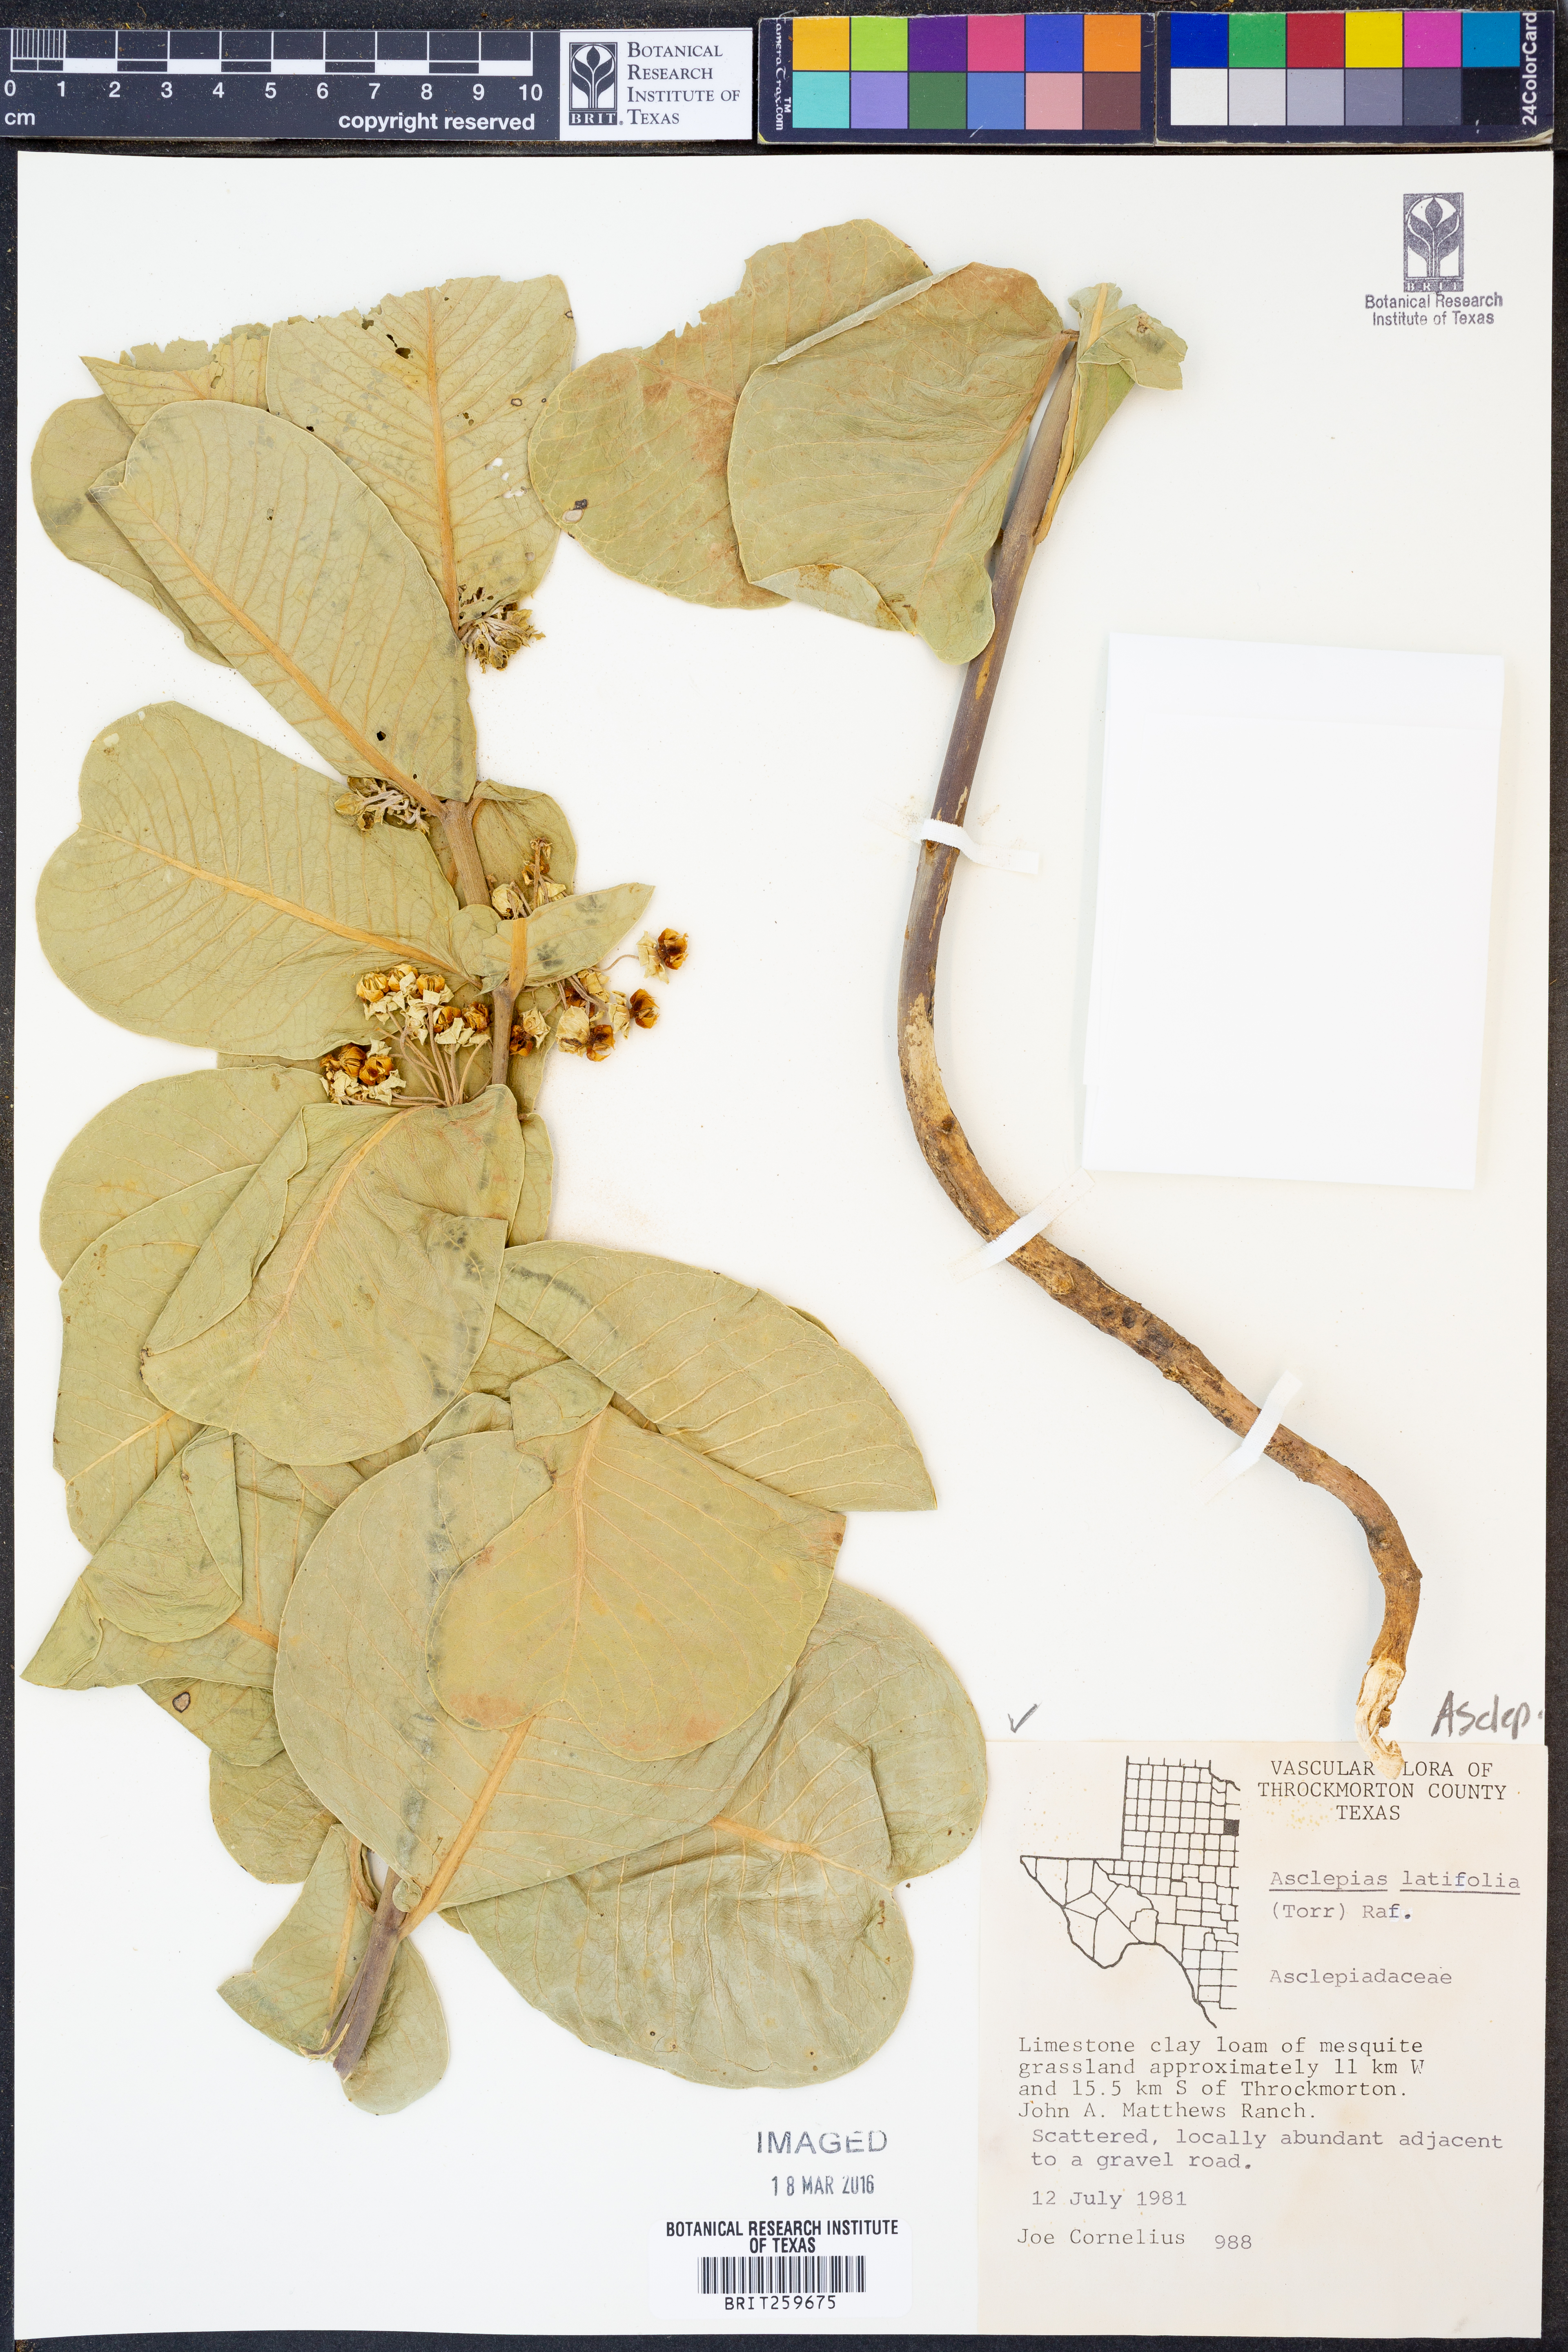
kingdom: Plantae
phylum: Tracheophyta
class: Magnoliopsida
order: Gentianales
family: Apocynaceae
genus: Asclepias
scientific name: Asclepias latifolia
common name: Broadleaf milkweed
